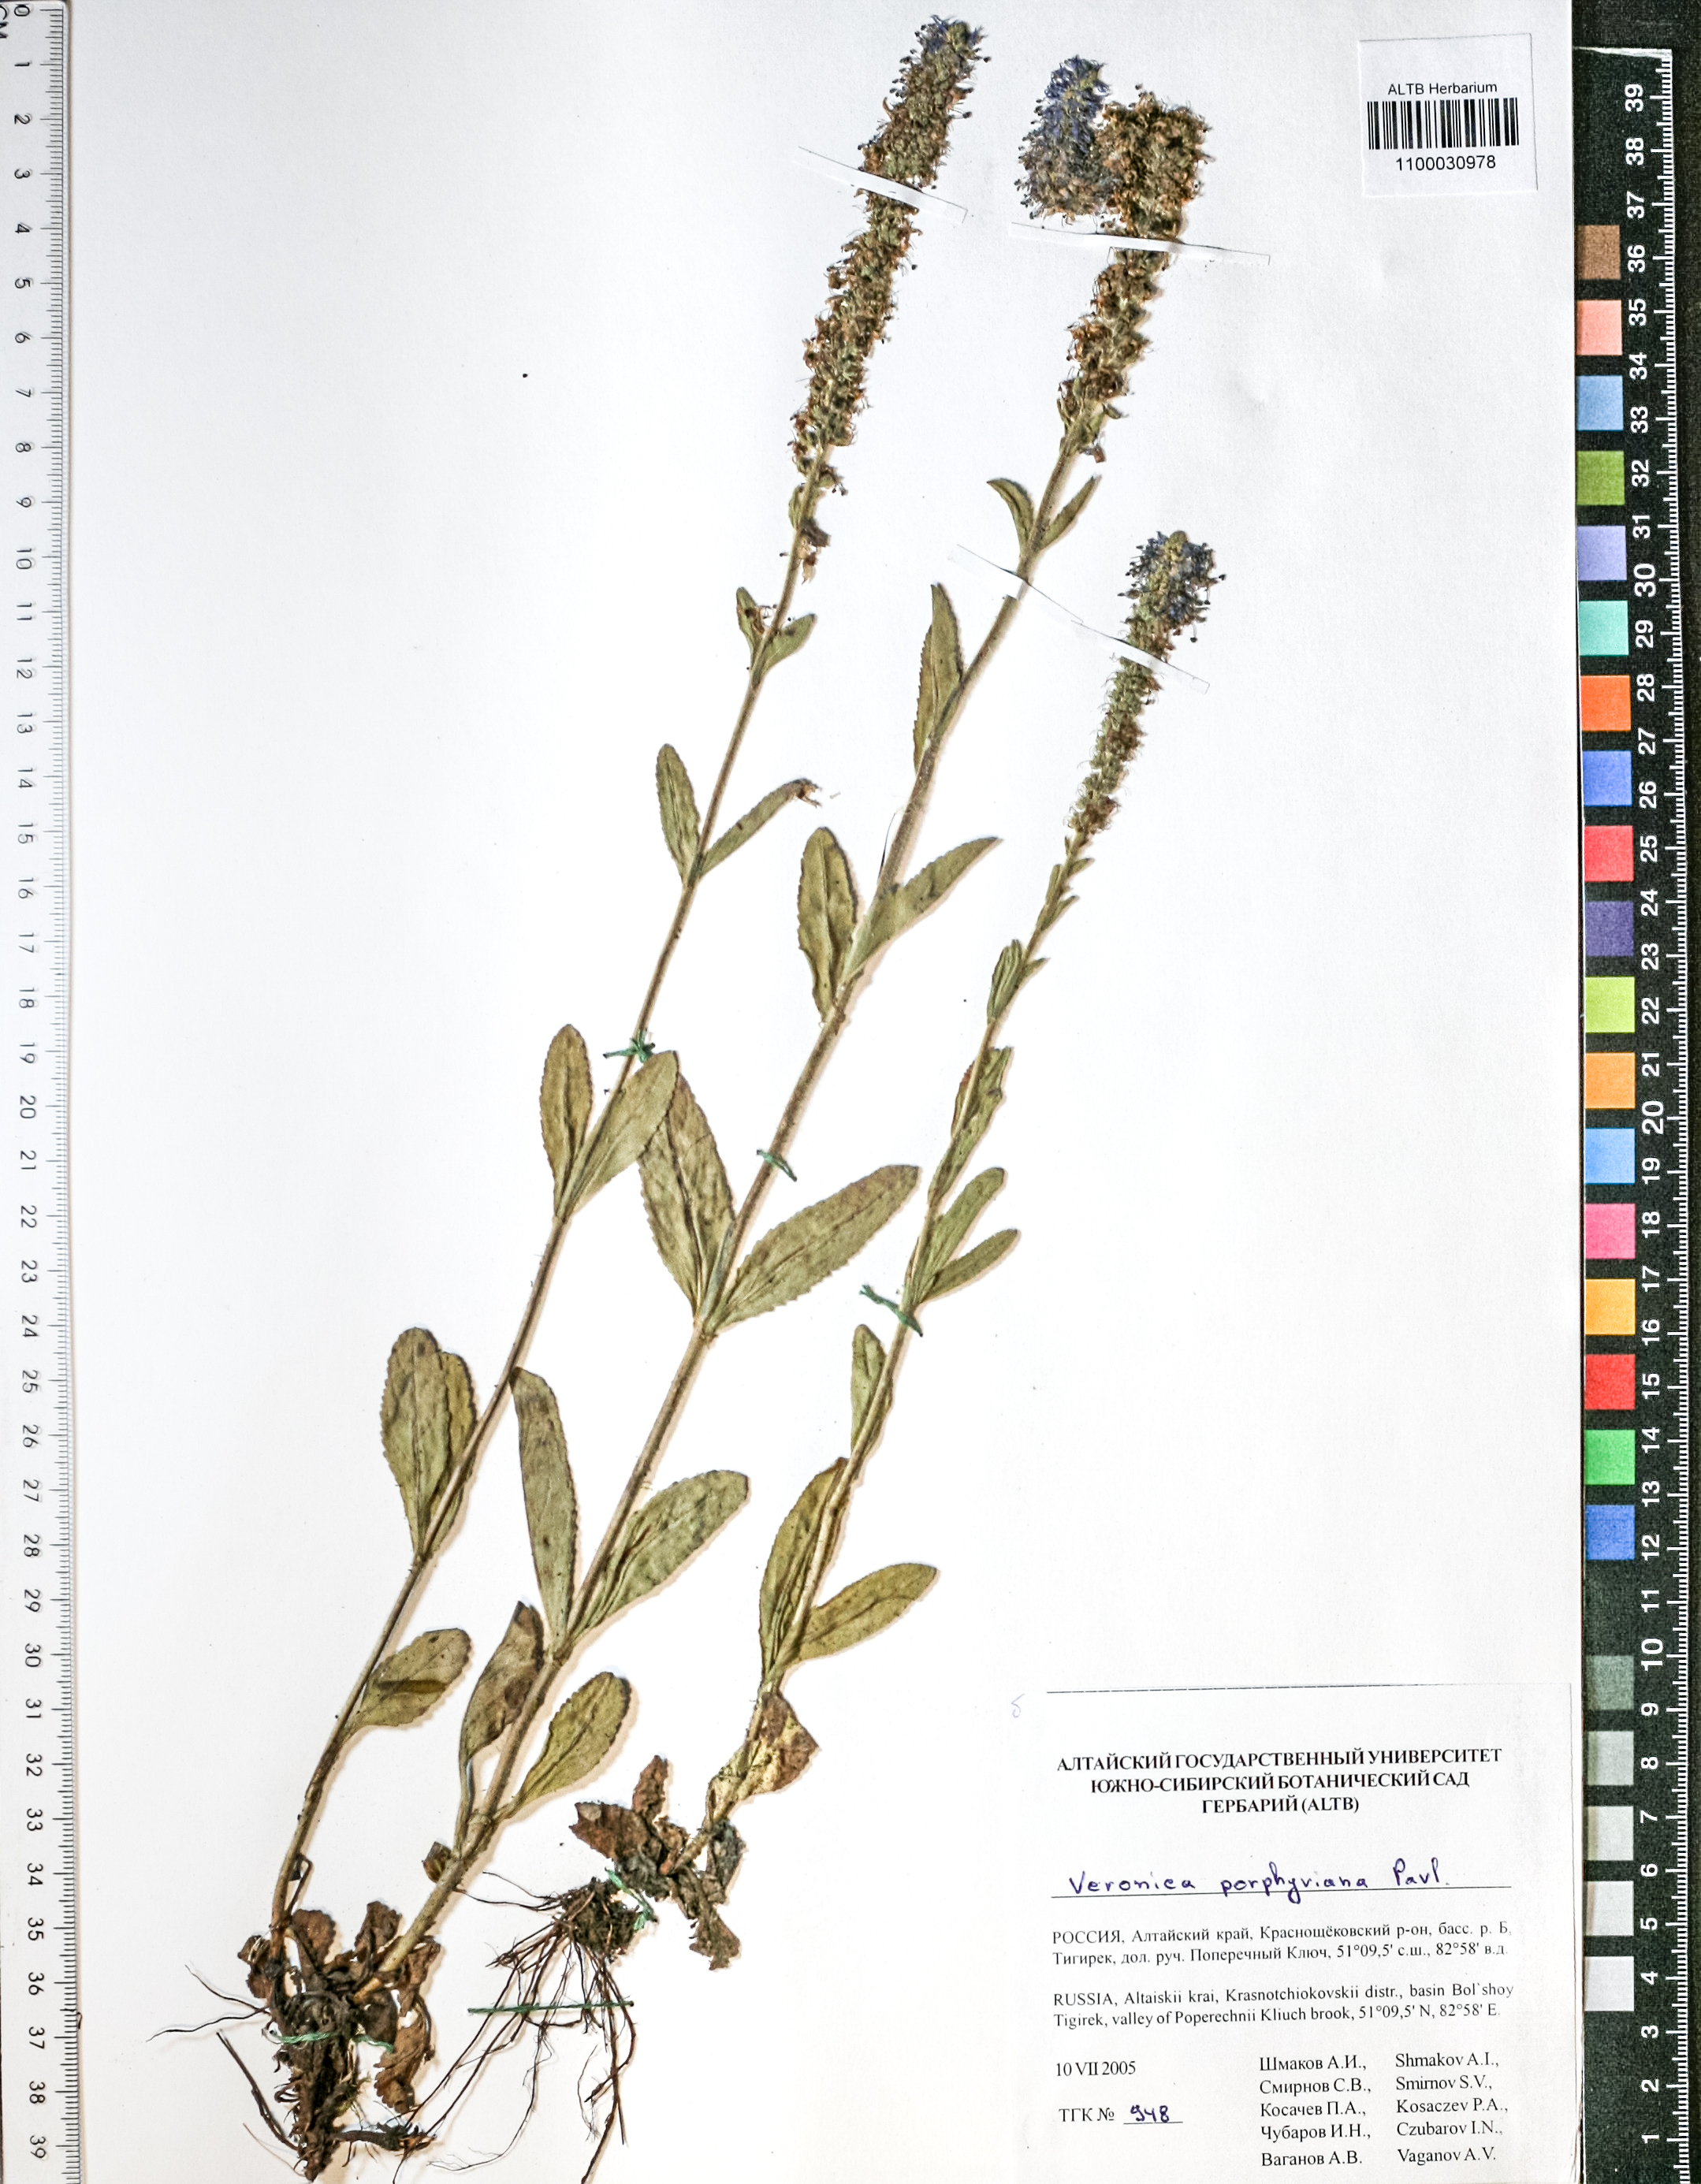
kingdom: Plantae
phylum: Tracheophyta
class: Magnoliopsida
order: Lamiales
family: Plantaginaceae
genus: Veronica
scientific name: Veronica porphyriana
